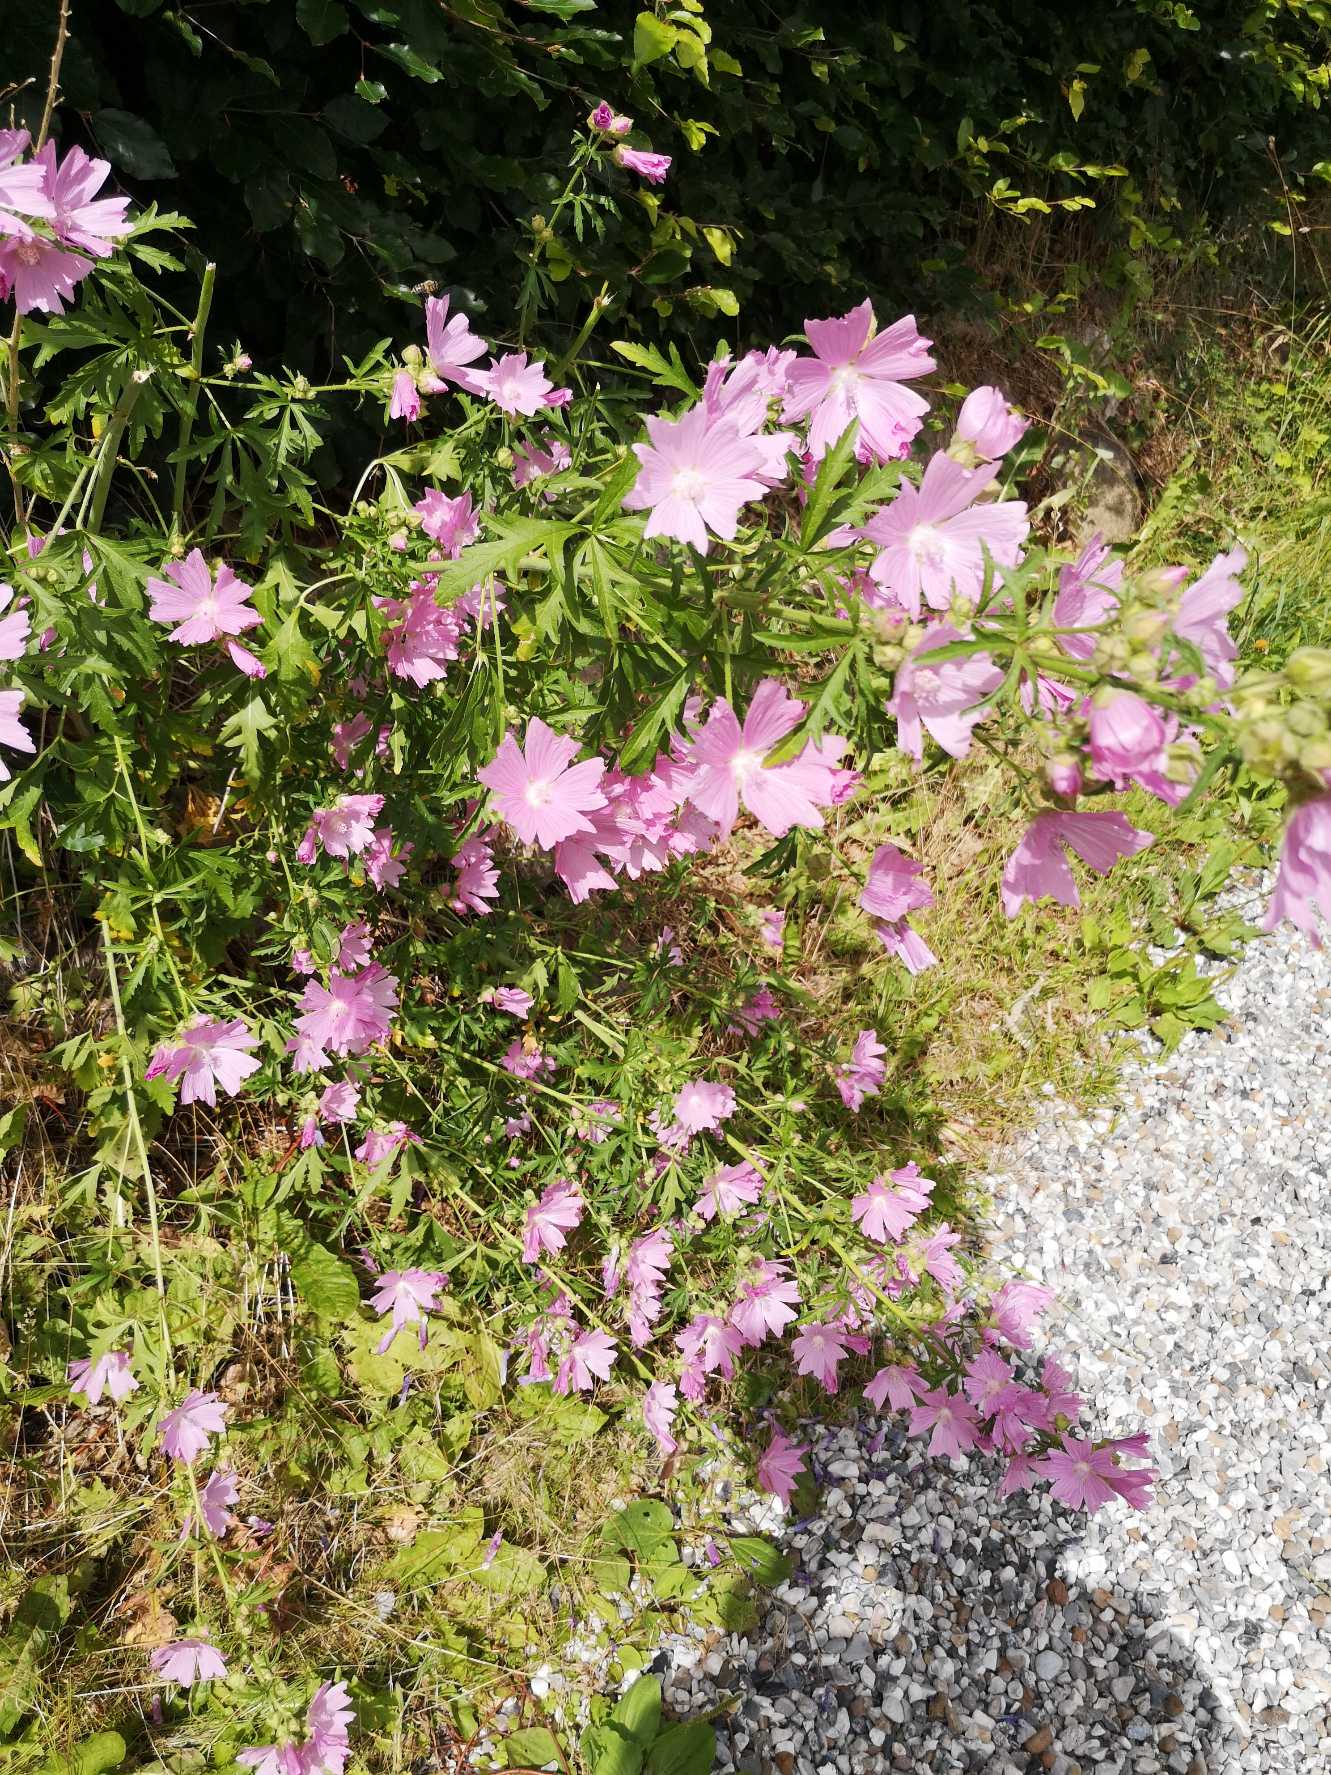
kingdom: Plantae
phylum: Tracheophyta
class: Magnoliopsida
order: Malvales
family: Malvaceae
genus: Malva
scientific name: Malva alcea
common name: Rosen-katost
